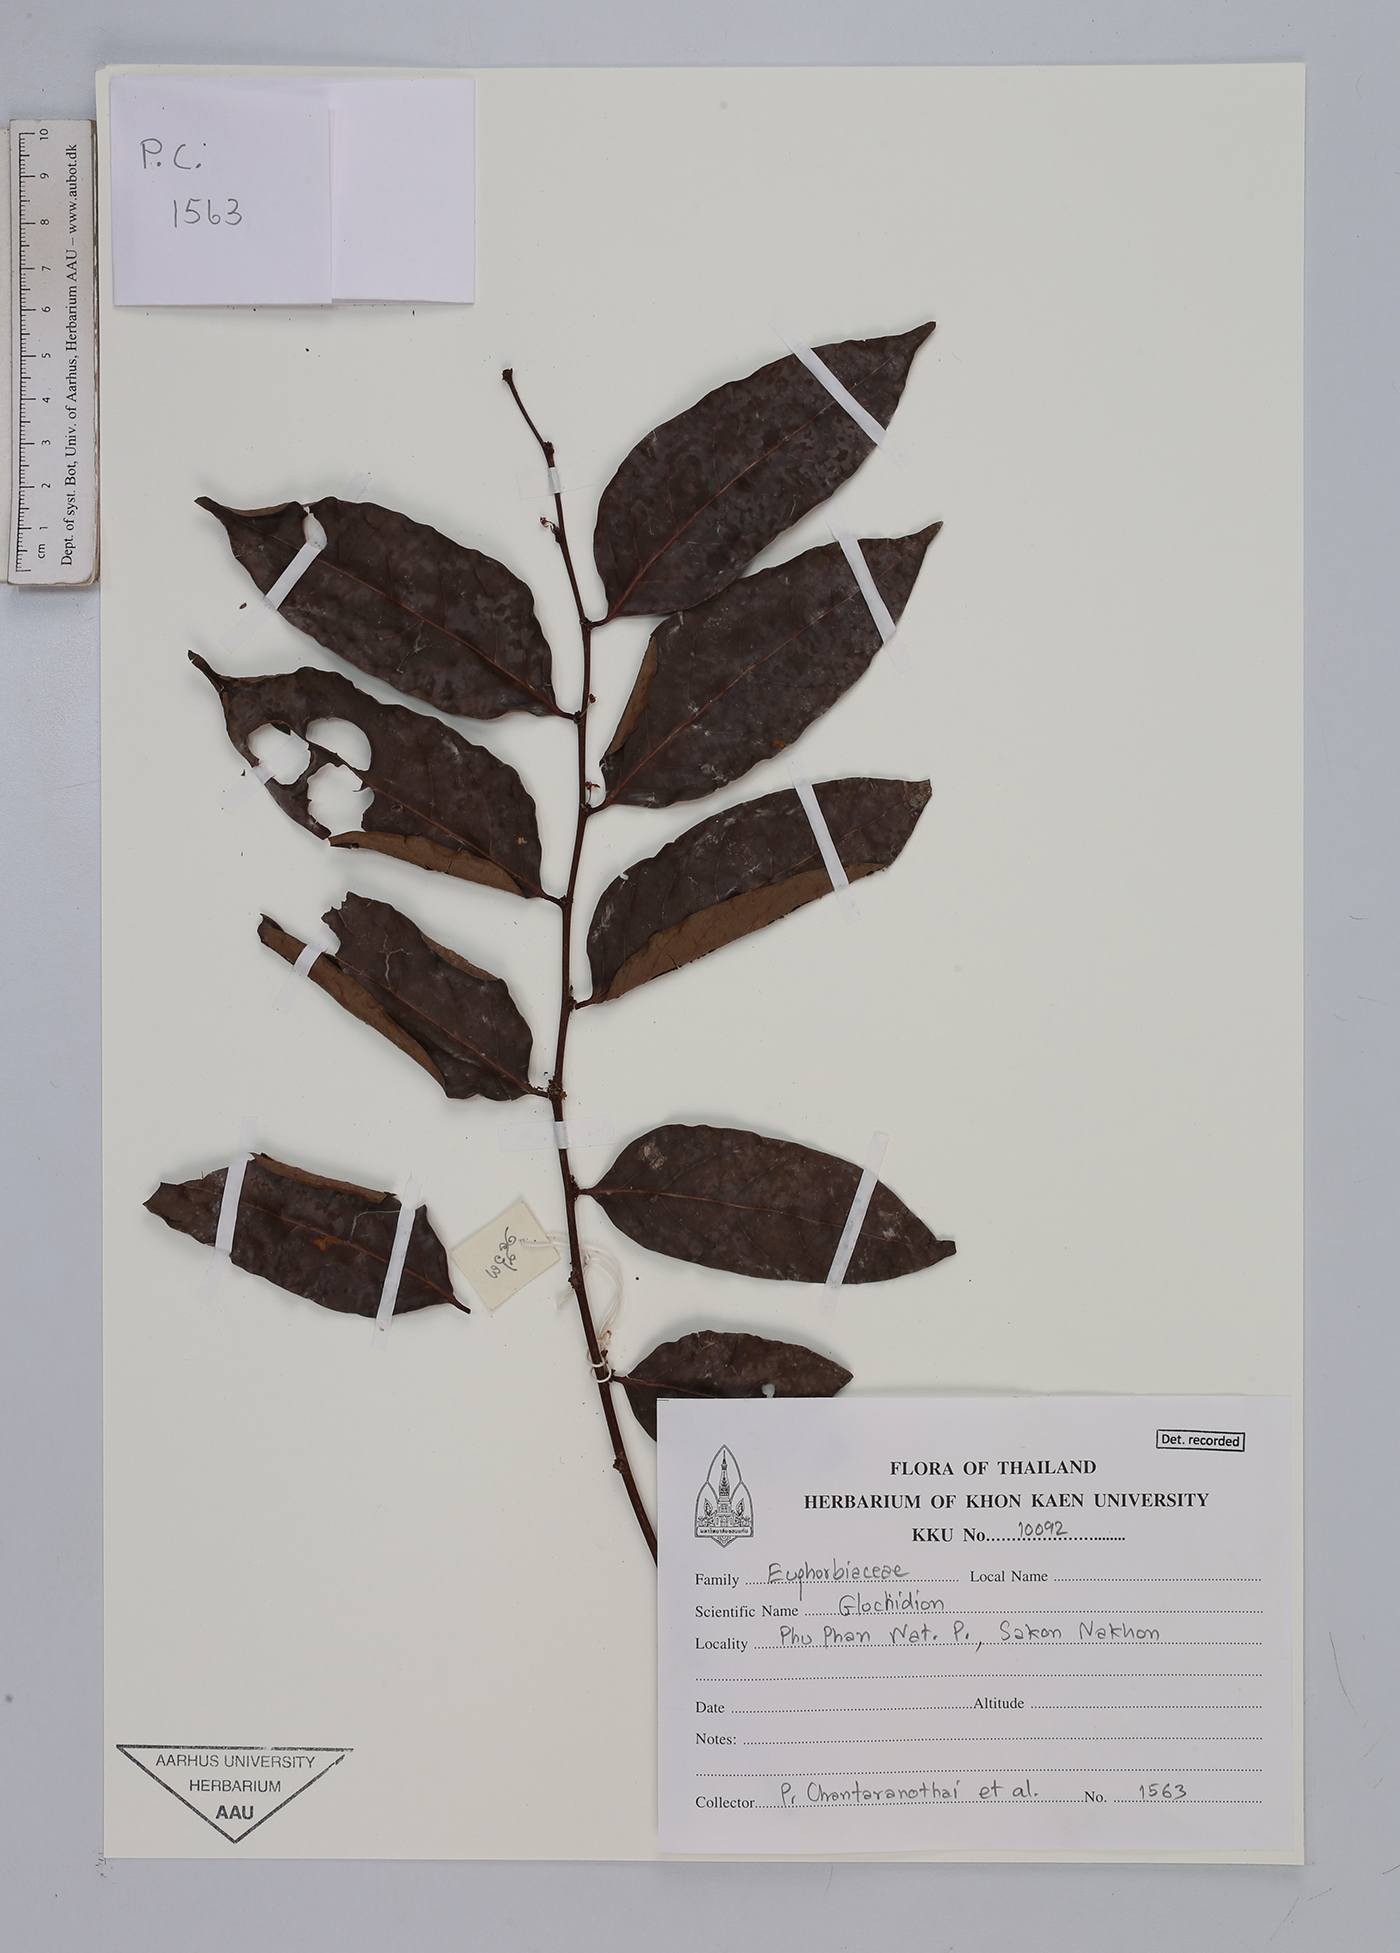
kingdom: Plantae
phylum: Tracheophyta
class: Magnoliopsida
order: Malpighiales
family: Phyllanthaceae
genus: Glochidion
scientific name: Glochidion
